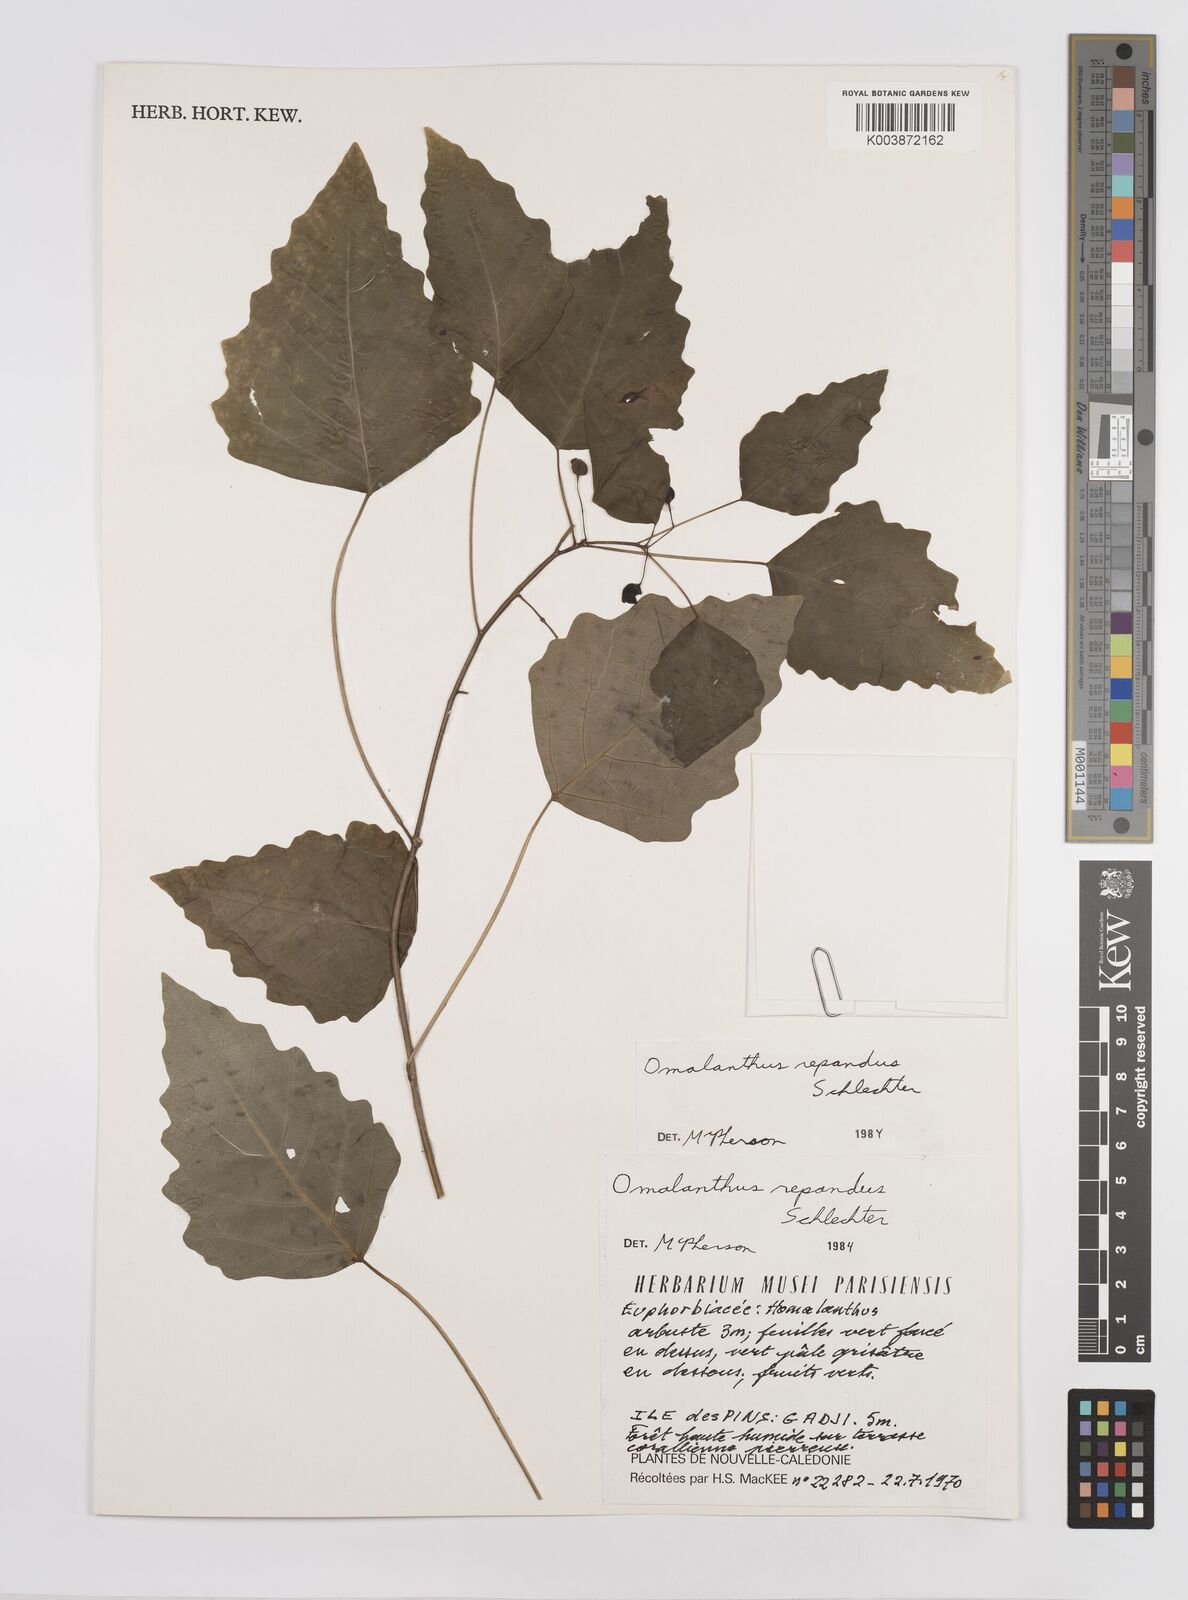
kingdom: Plantae
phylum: Tracheophyta
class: Magnoliopsida
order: Malpighiales
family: Euphorbiaceae
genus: Homalanthus
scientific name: Homalanthus repandus
